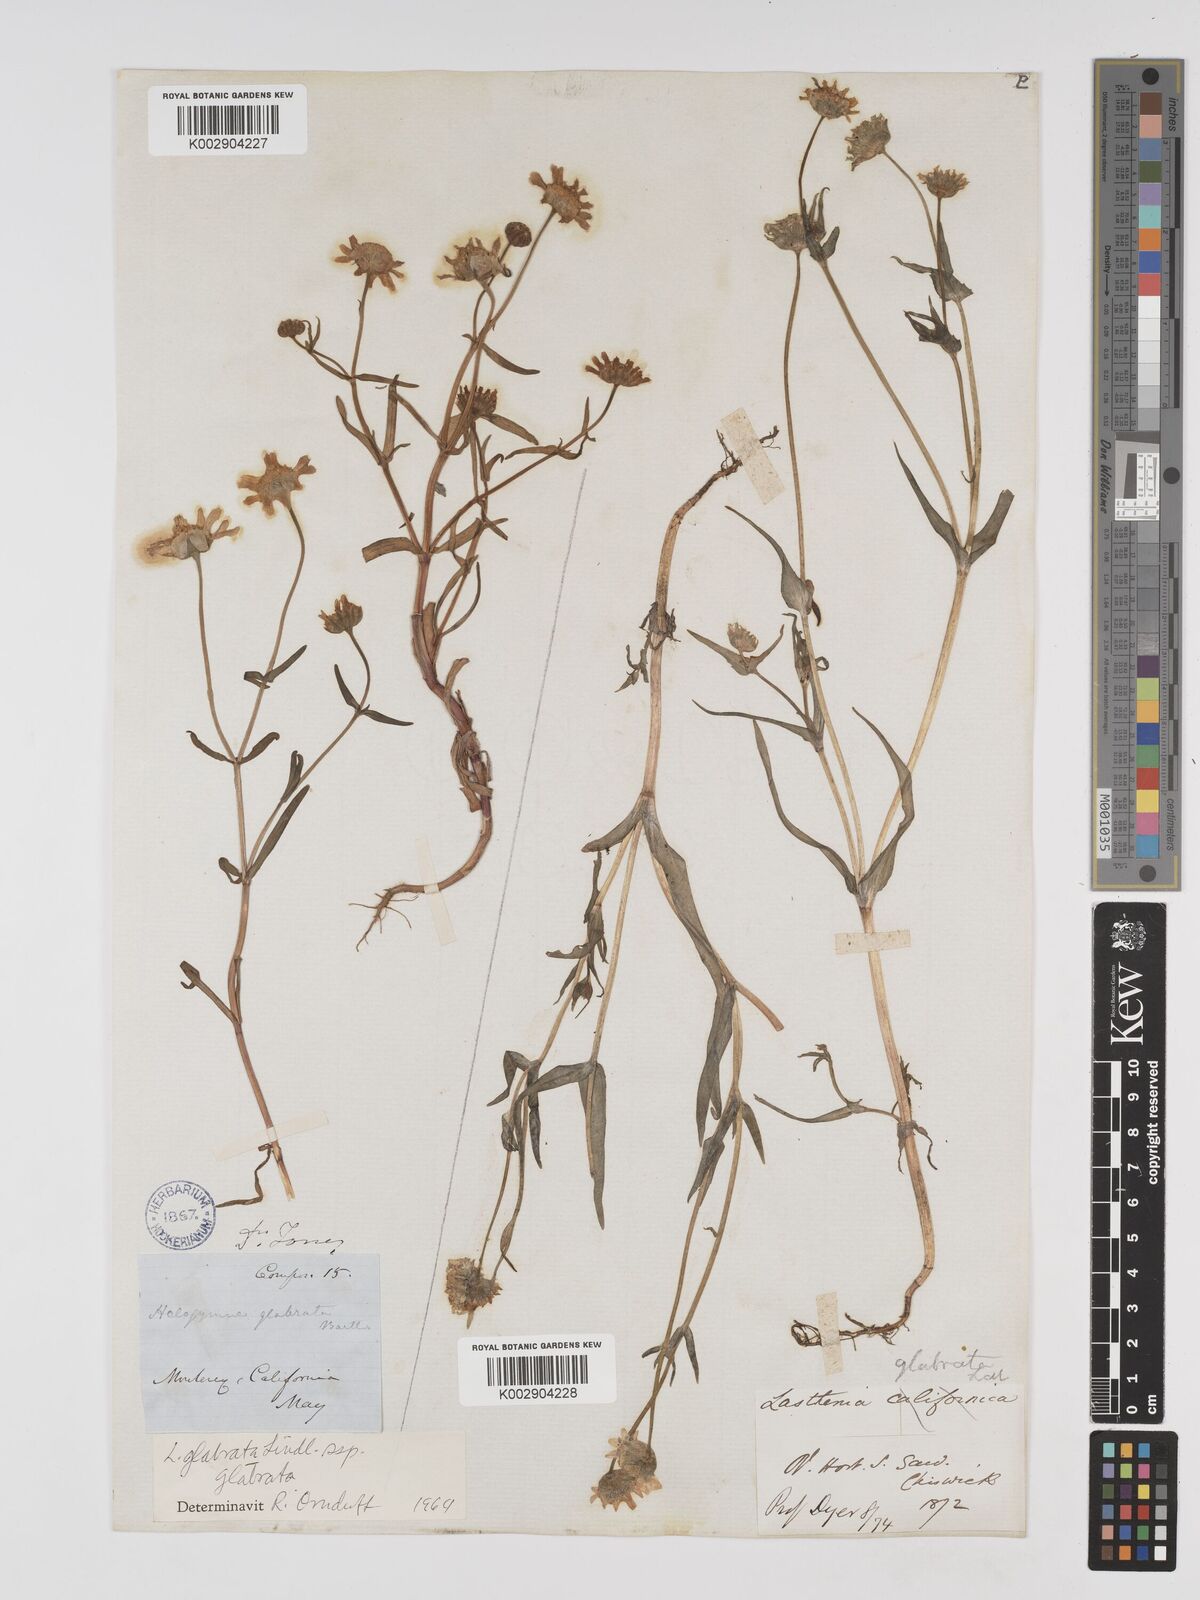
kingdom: Plantae
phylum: Tracheophyta
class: Magnoliopsida
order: Asterales
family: Asteraceae
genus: Lasthenia
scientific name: Lasthenia glabrata
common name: Yellow-ray lasthenia
